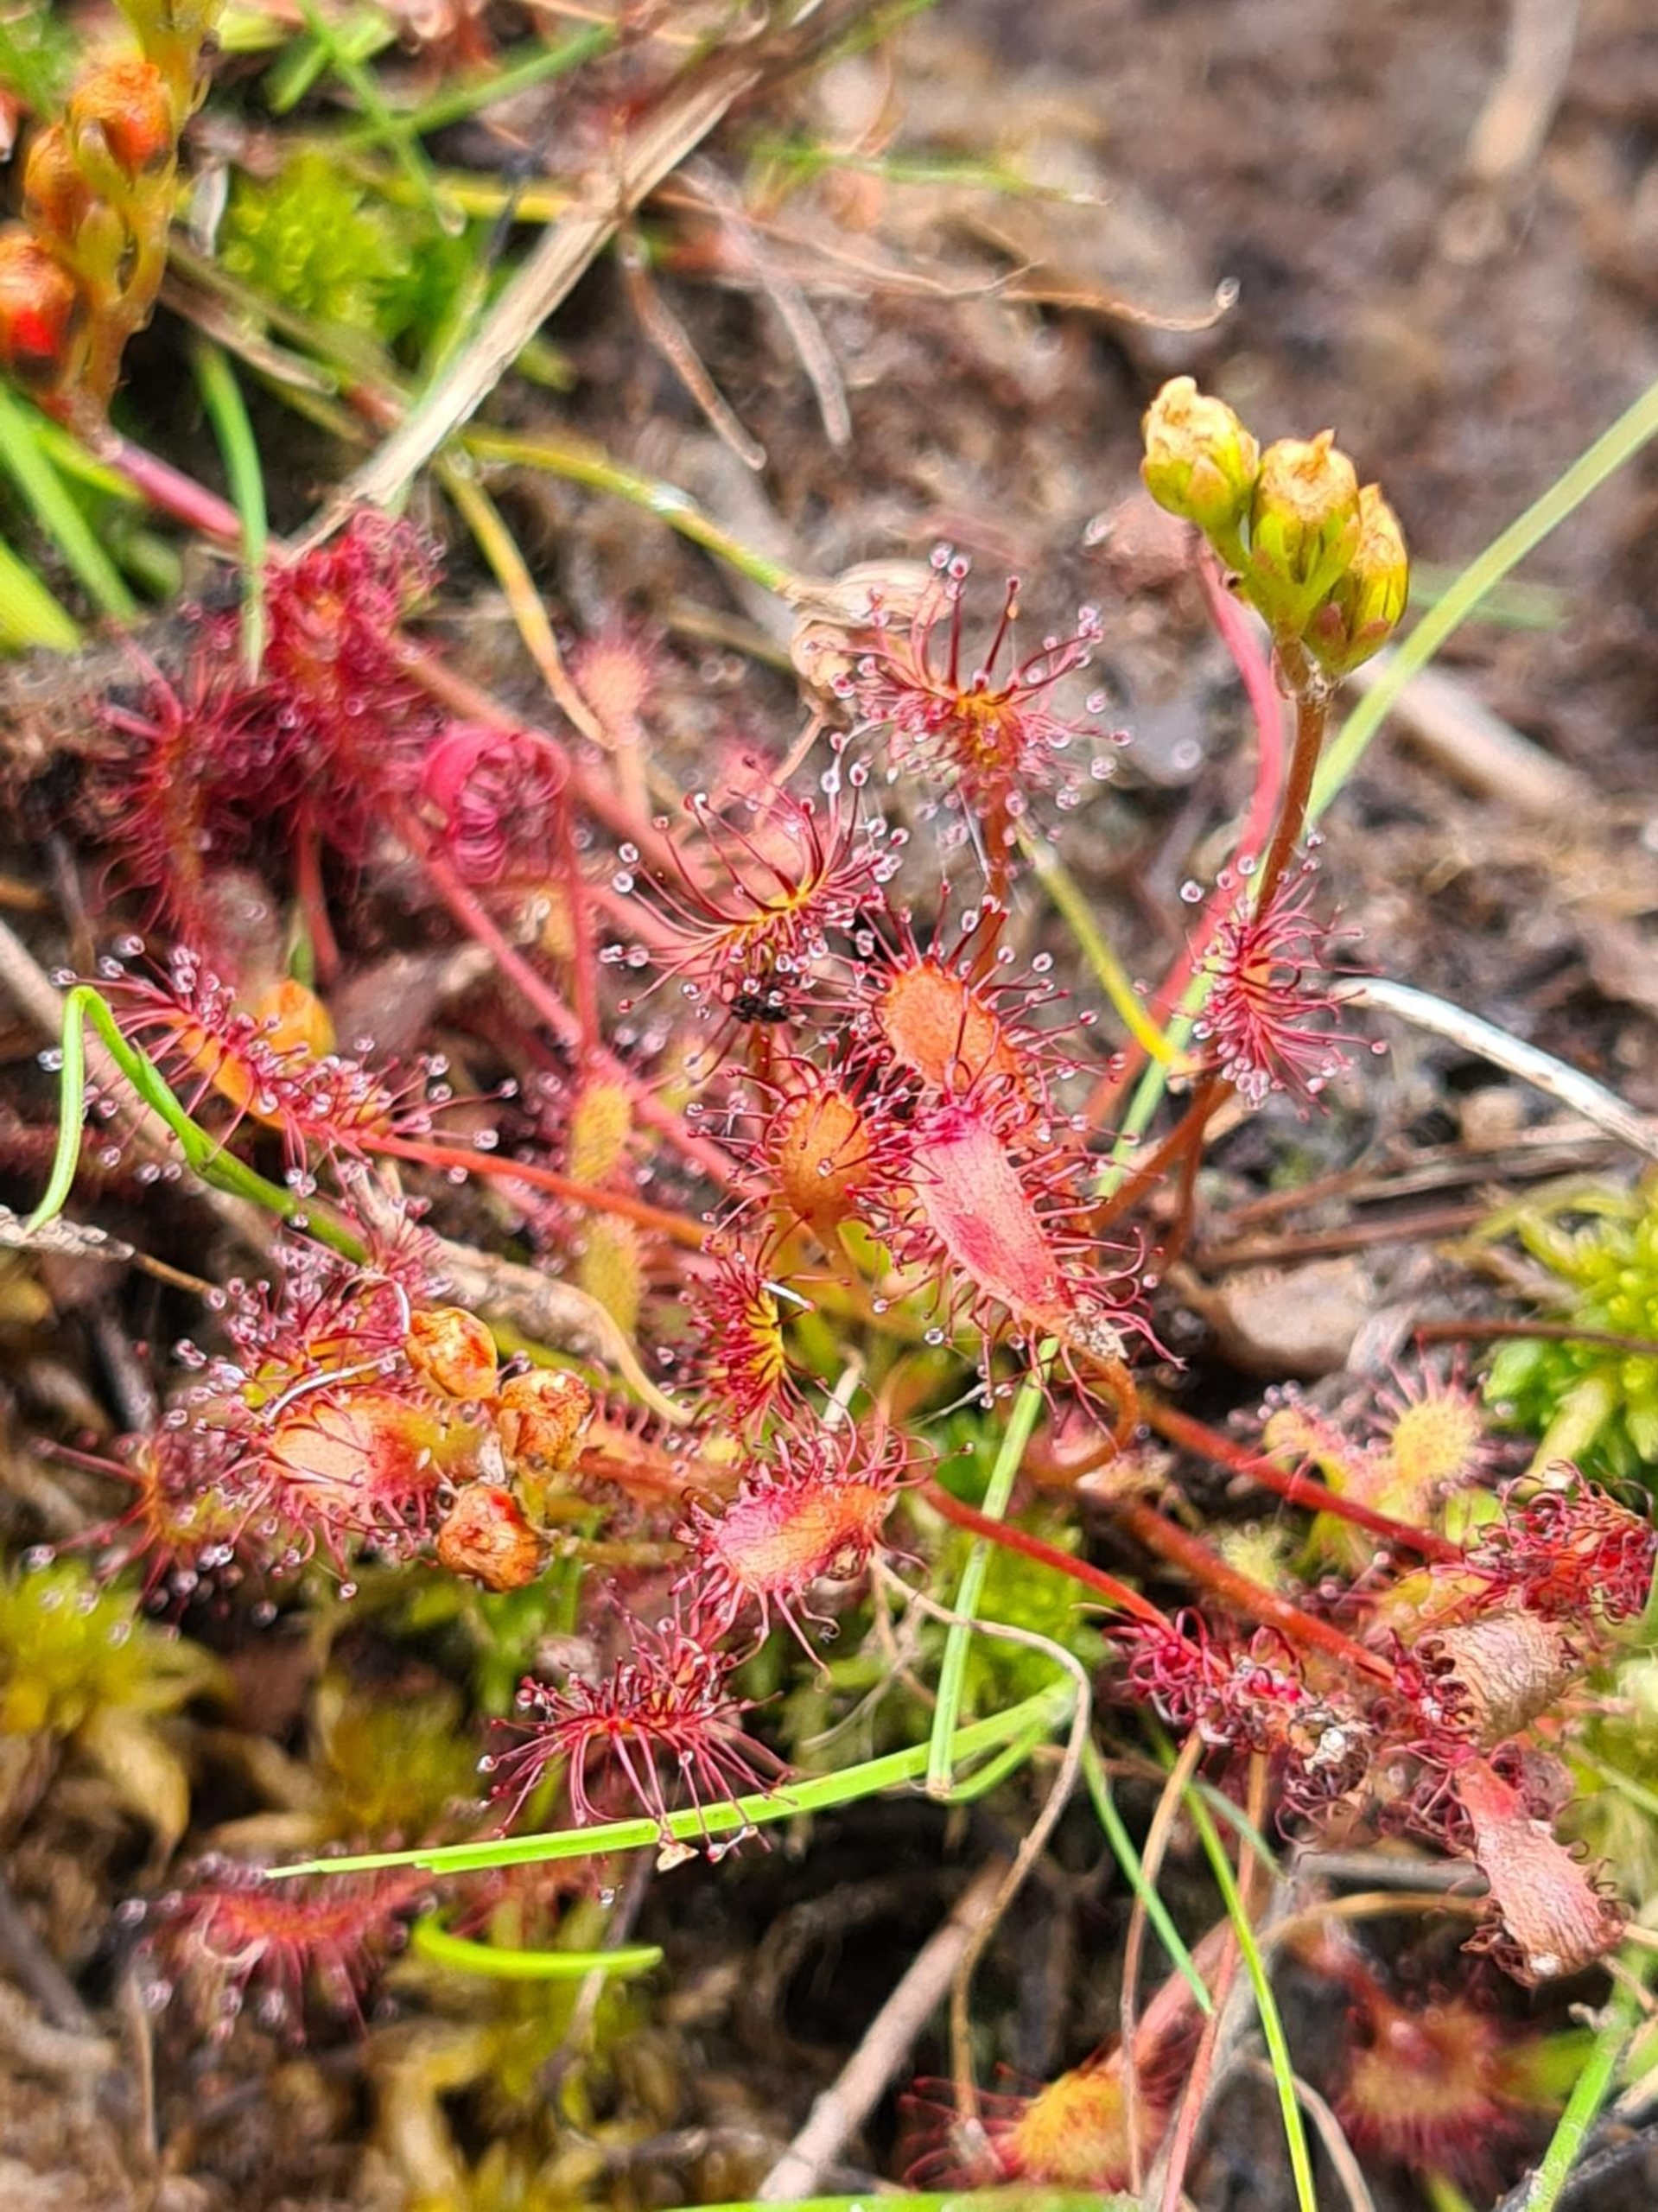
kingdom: Plantae
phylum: Tracheophyta
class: Magnoliopsida
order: Caryophyllales
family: Droseraceae
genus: Drosera
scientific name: Drosera intermedia
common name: Liden soldug
